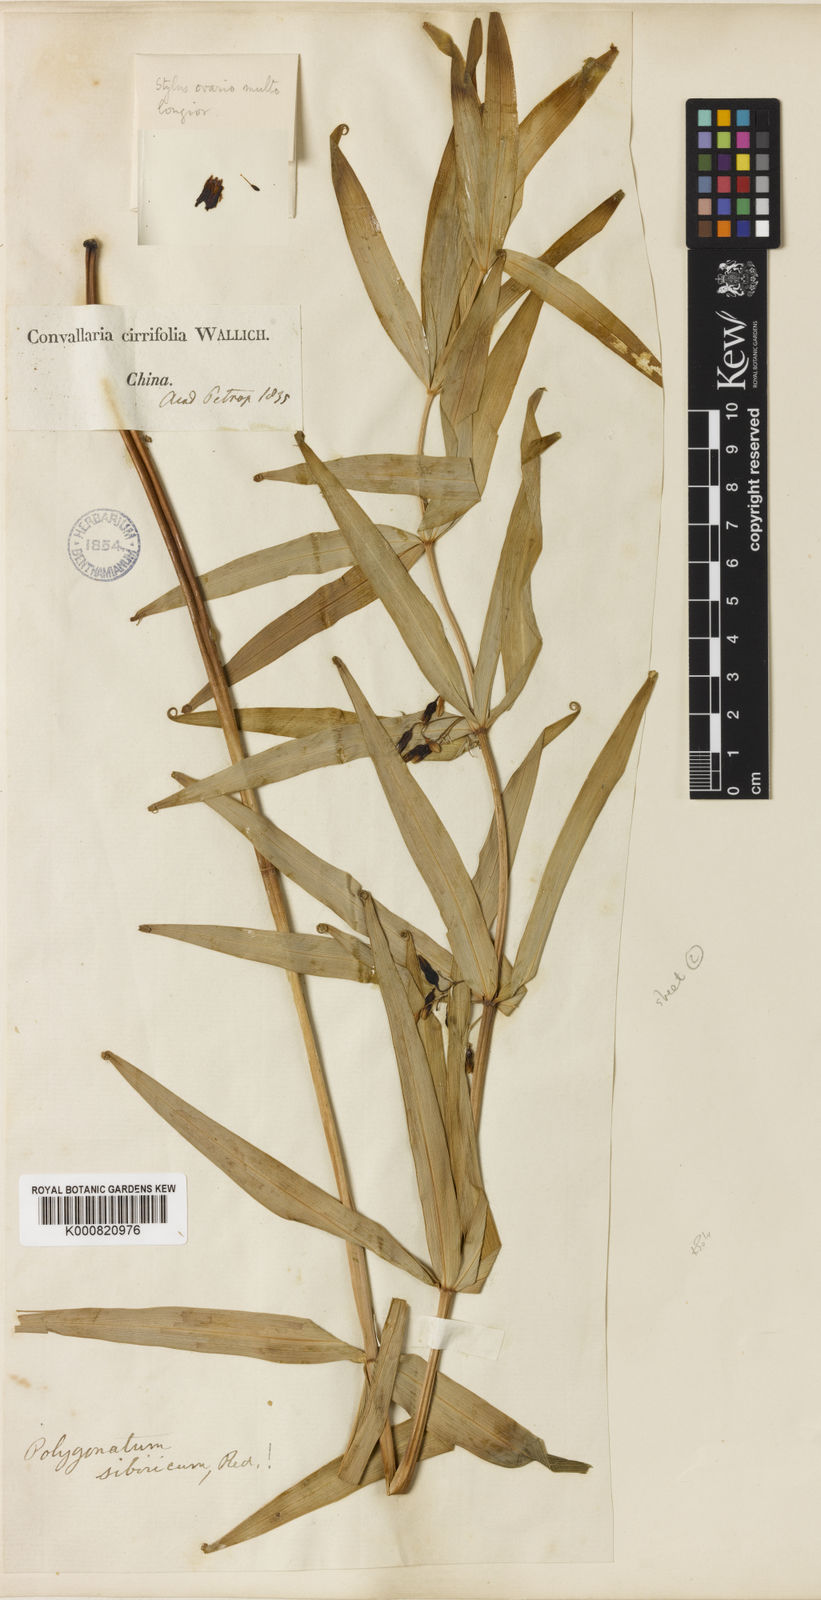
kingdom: Plantae
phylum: Tracheophyta
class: Liliopsida
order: Asparagales
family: Asparagaceae
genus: Polygonatum
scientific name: Polygonatum
